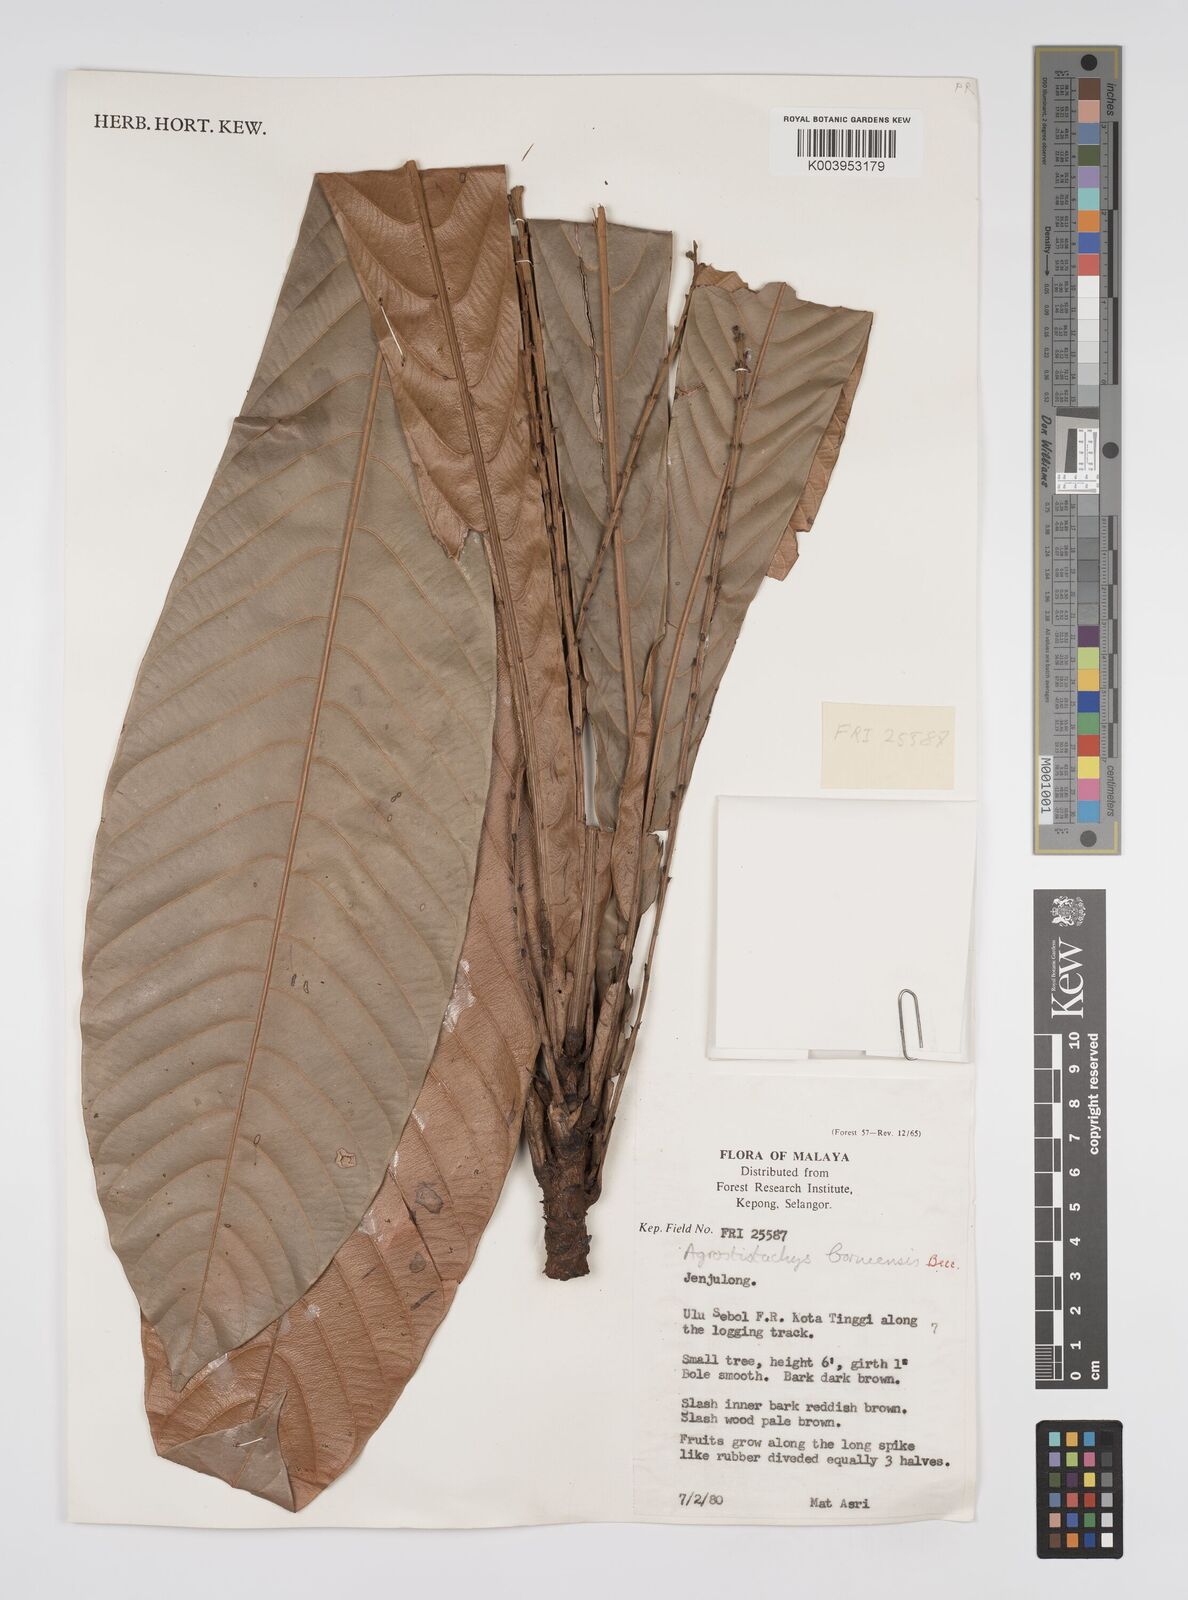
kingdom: Plantae
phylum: Tracheophyta
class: Magnoliopsida
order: Malpighiales
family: Euphorbiaceae
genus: Agrostistachys
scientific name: Agrostistachys borneensis
